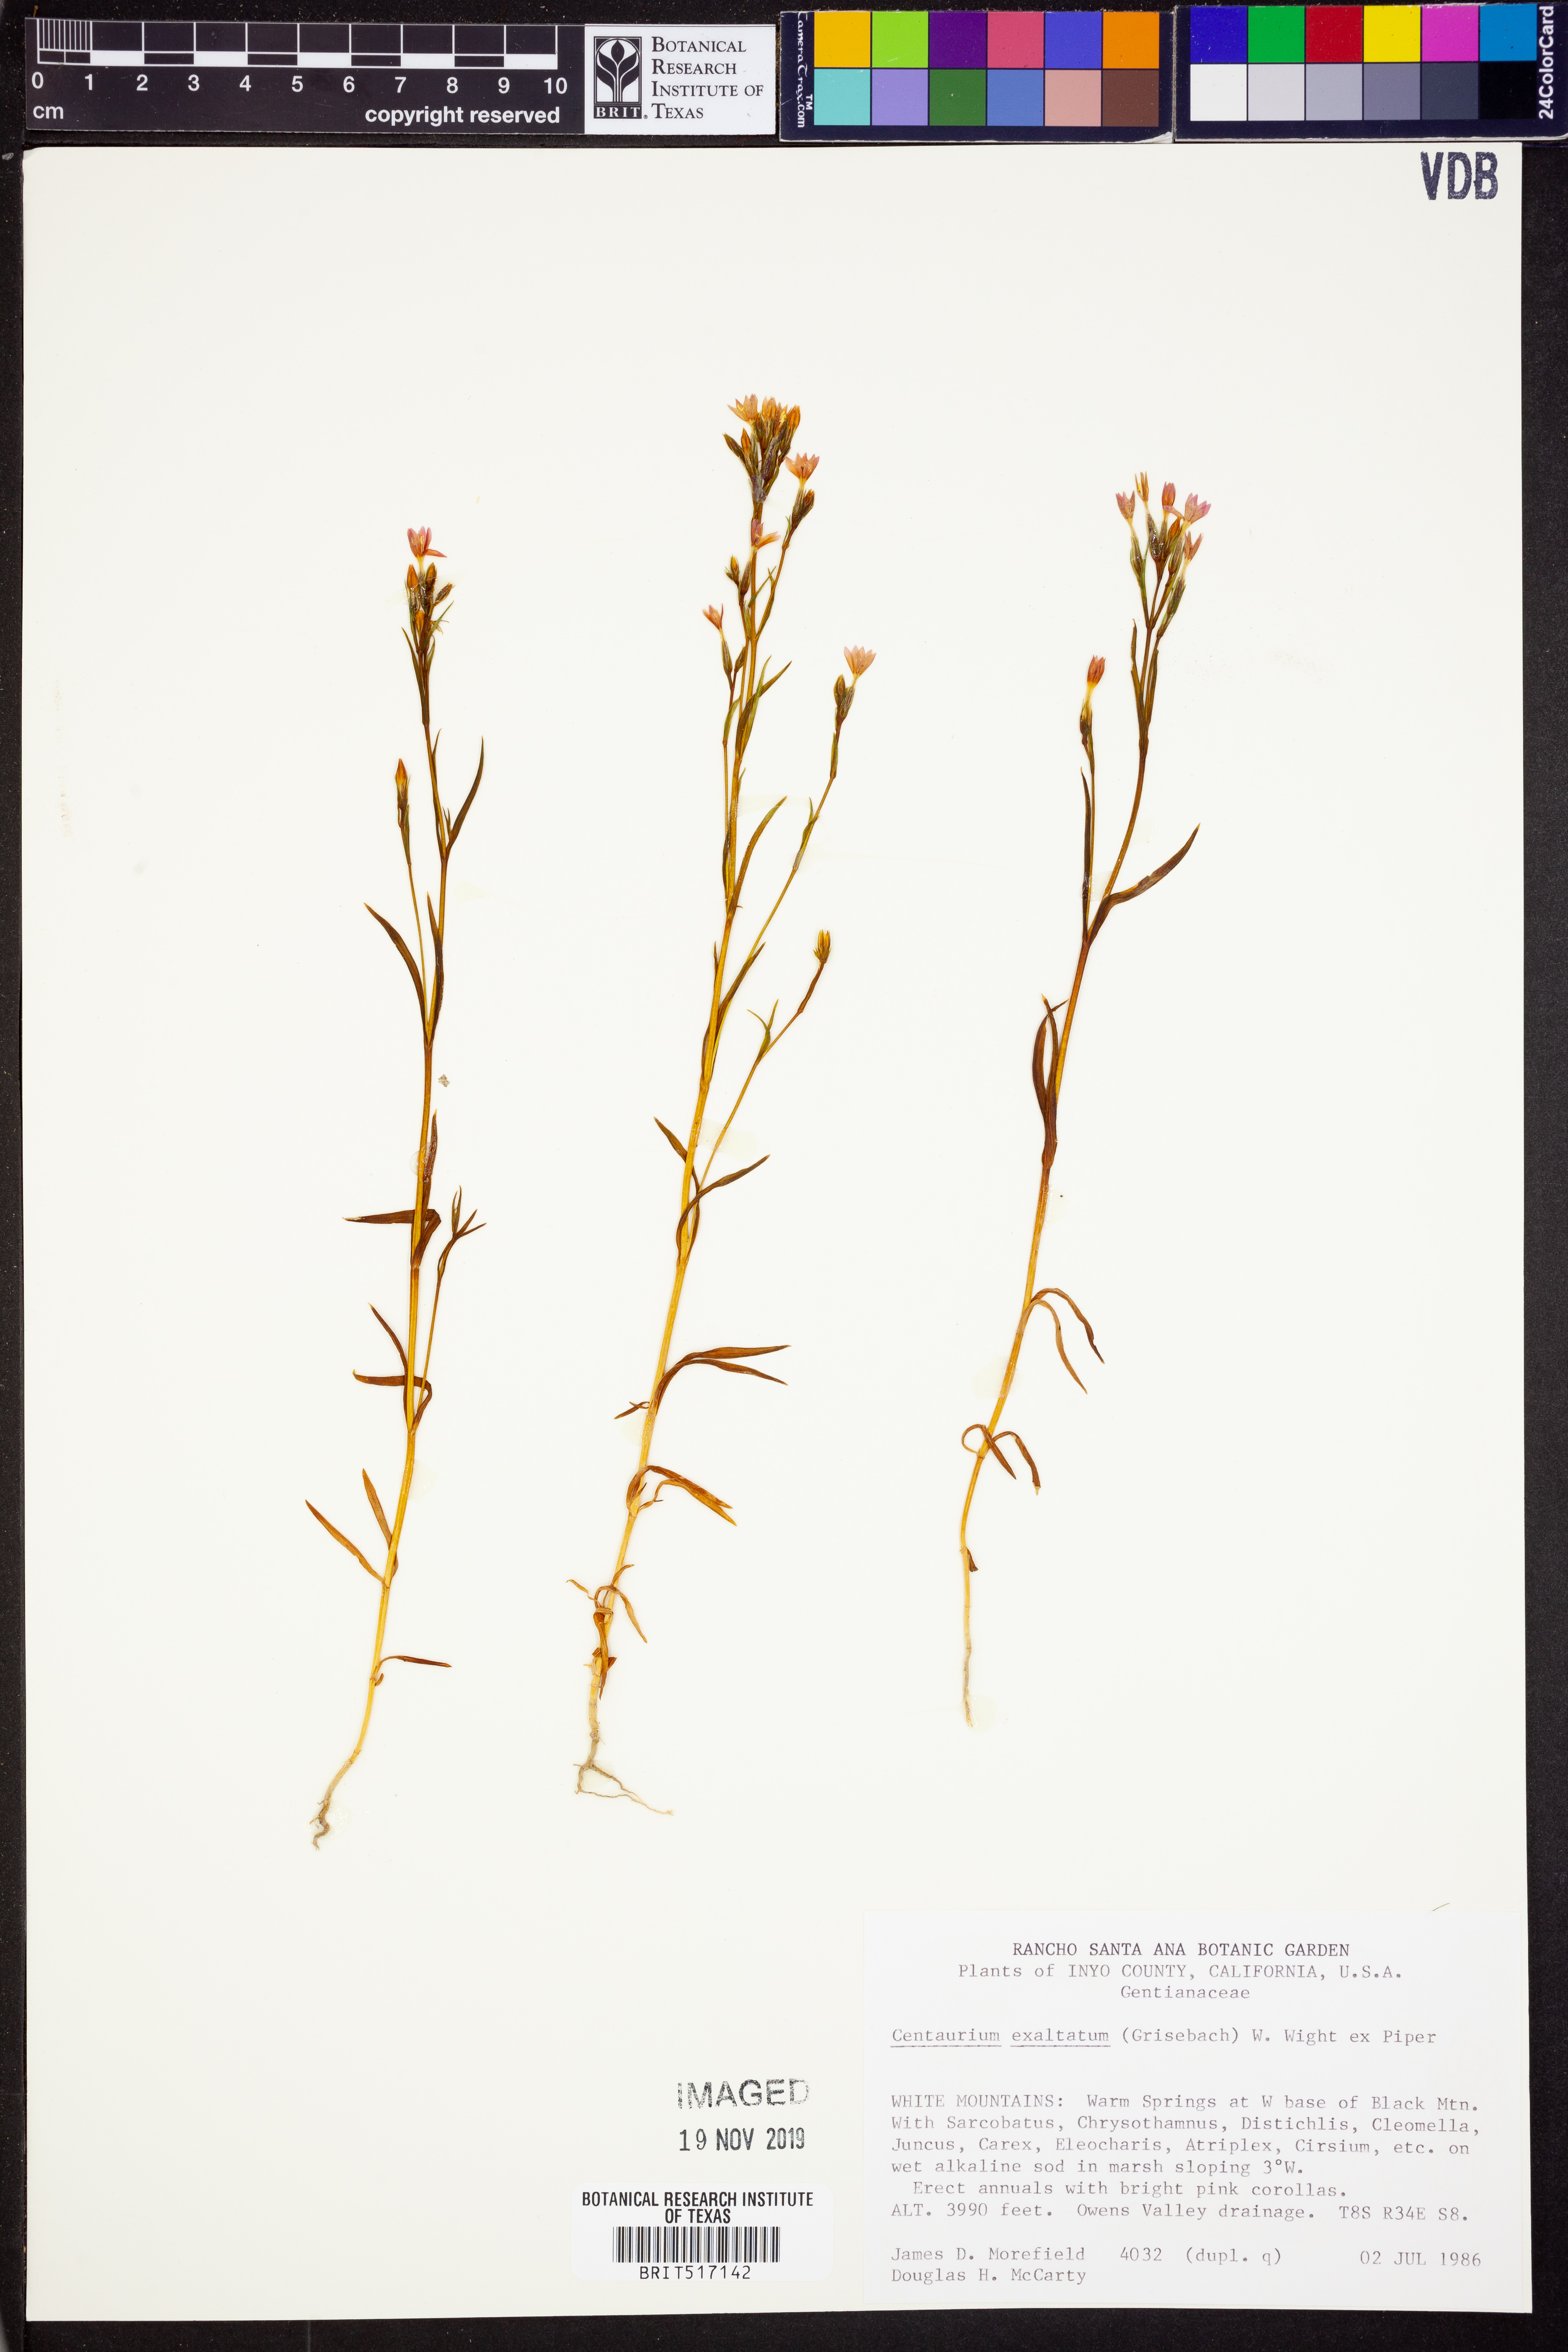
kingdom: Plantae
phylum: Tracheophyta
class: Magnoliopsida
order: Gentianales
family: Gentianaceae
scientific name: Gentianaceae
